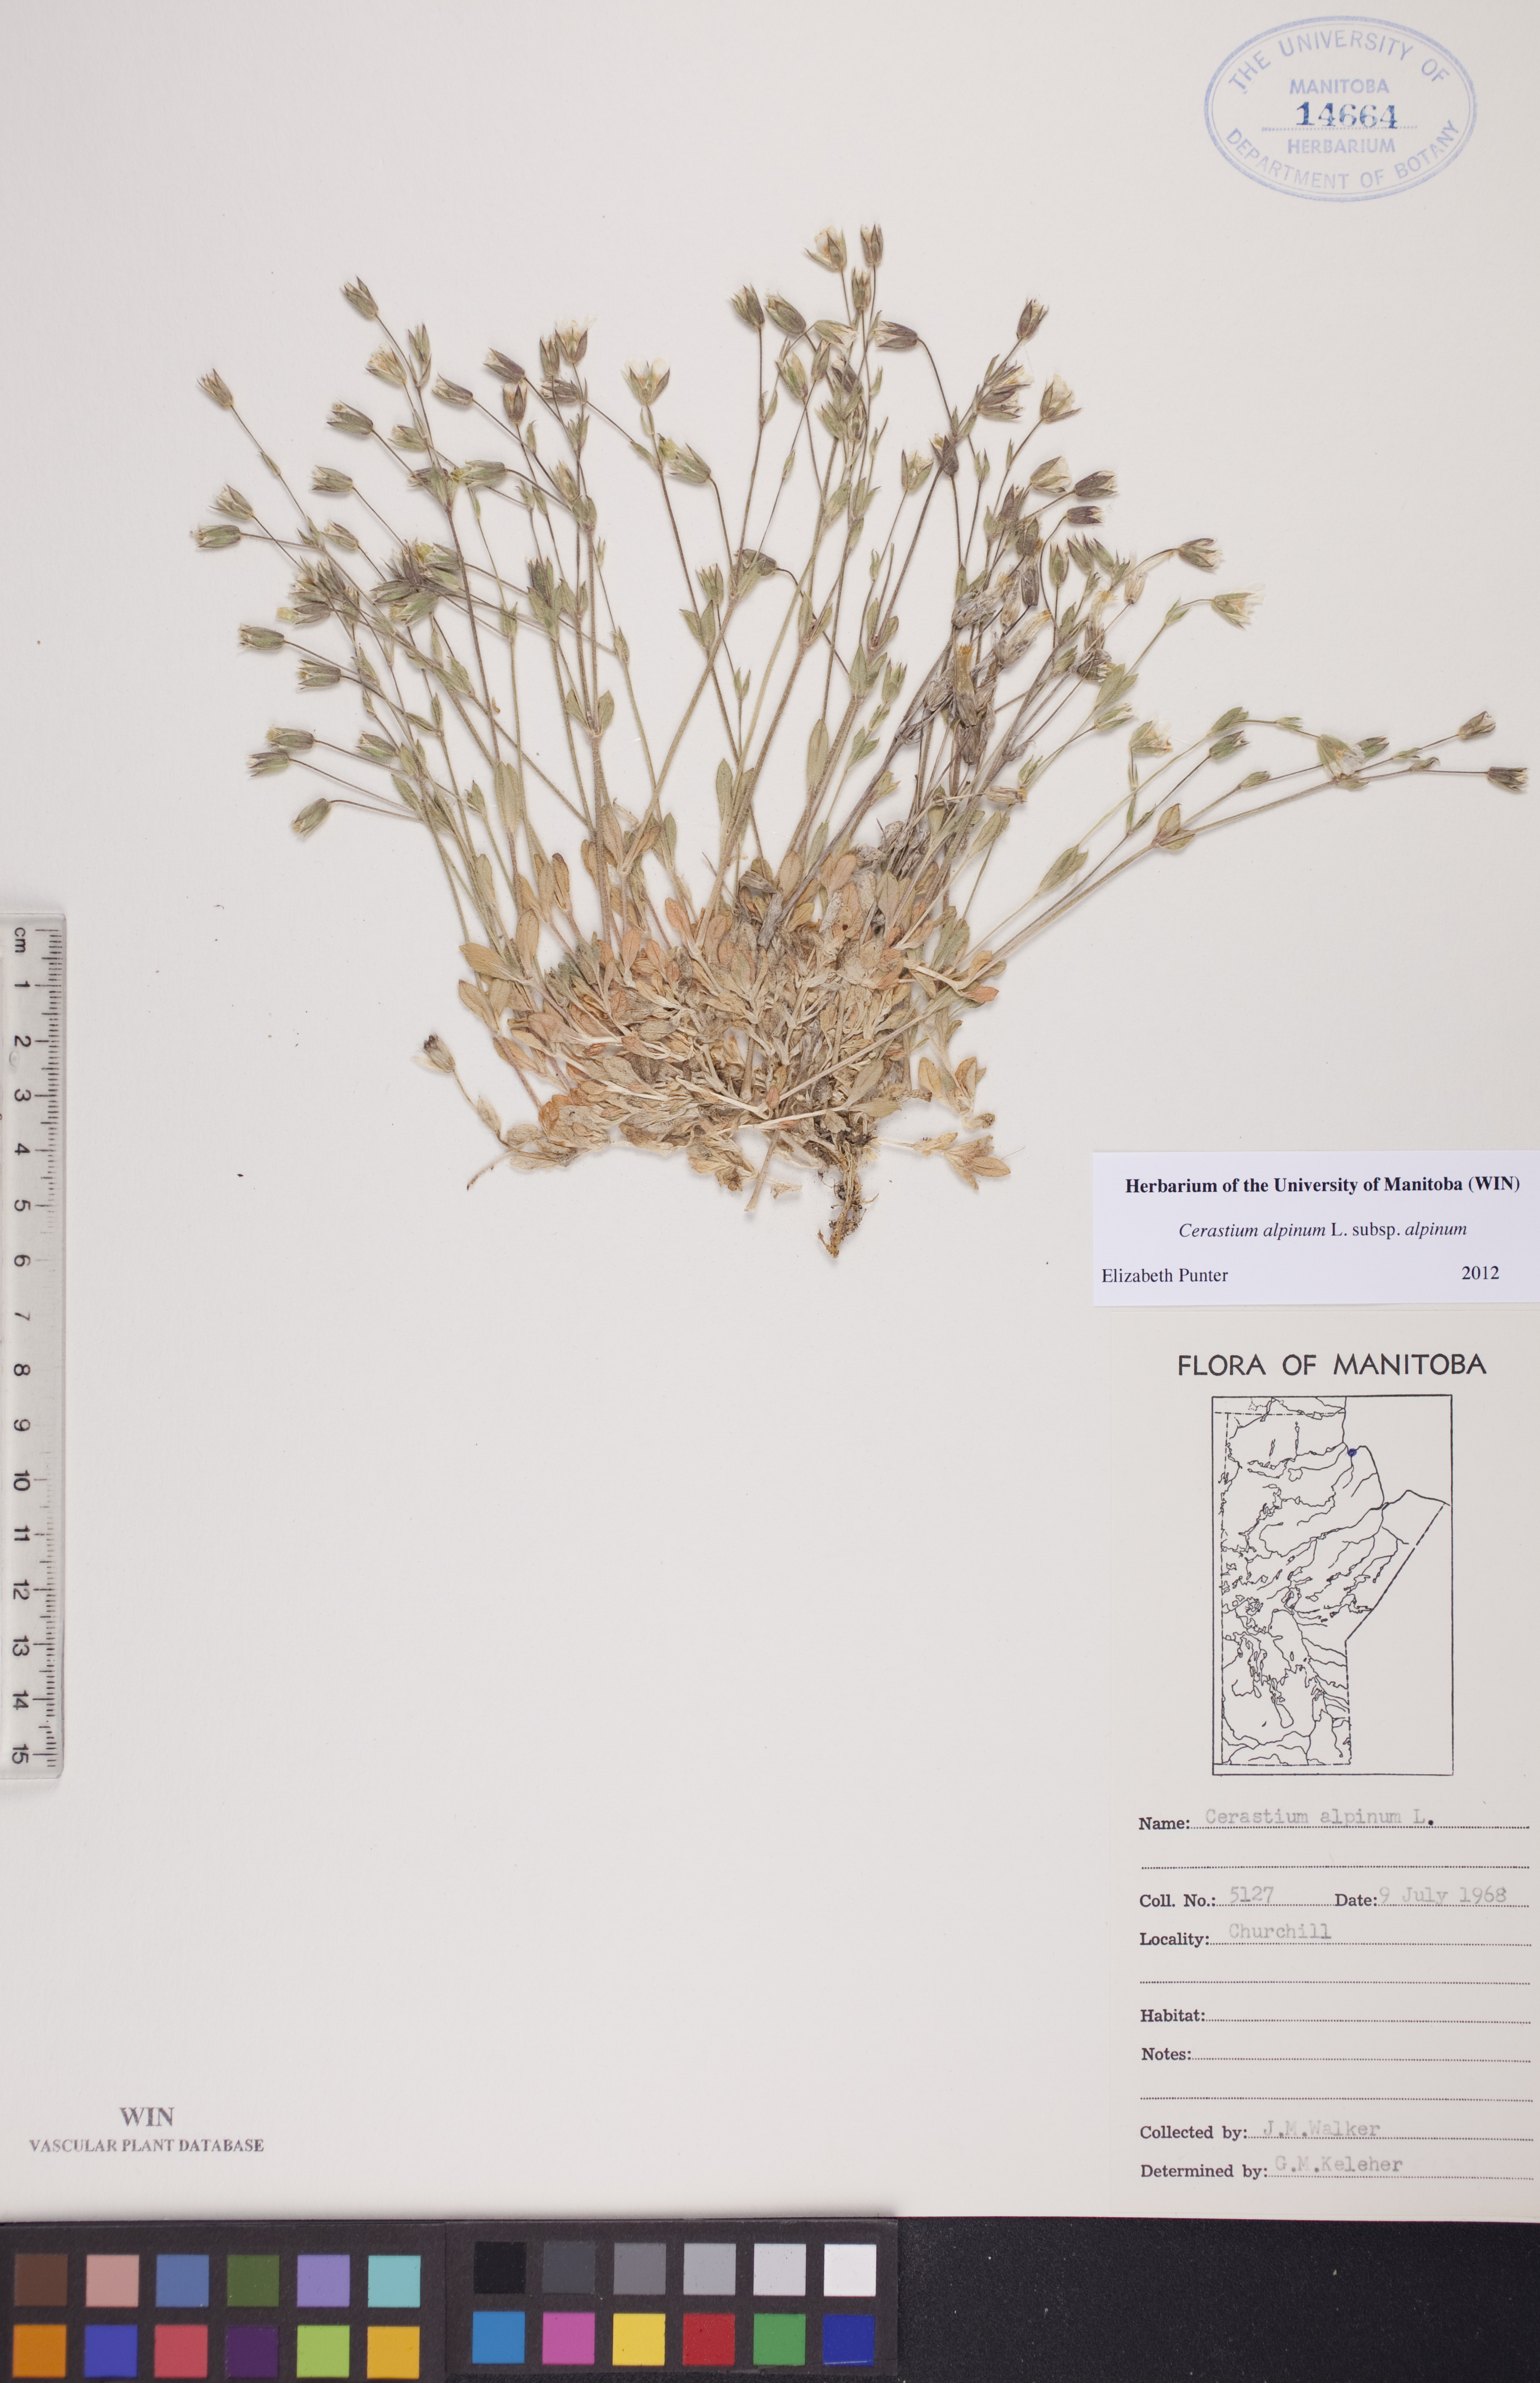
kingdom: Plantae
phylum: Tracheophyta
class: Magnoliopsida
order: Caryophyllales
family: Caryophyllaceae
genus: Cerastium
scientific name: Cerastium alpinum
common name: Alpine mouse-ear
